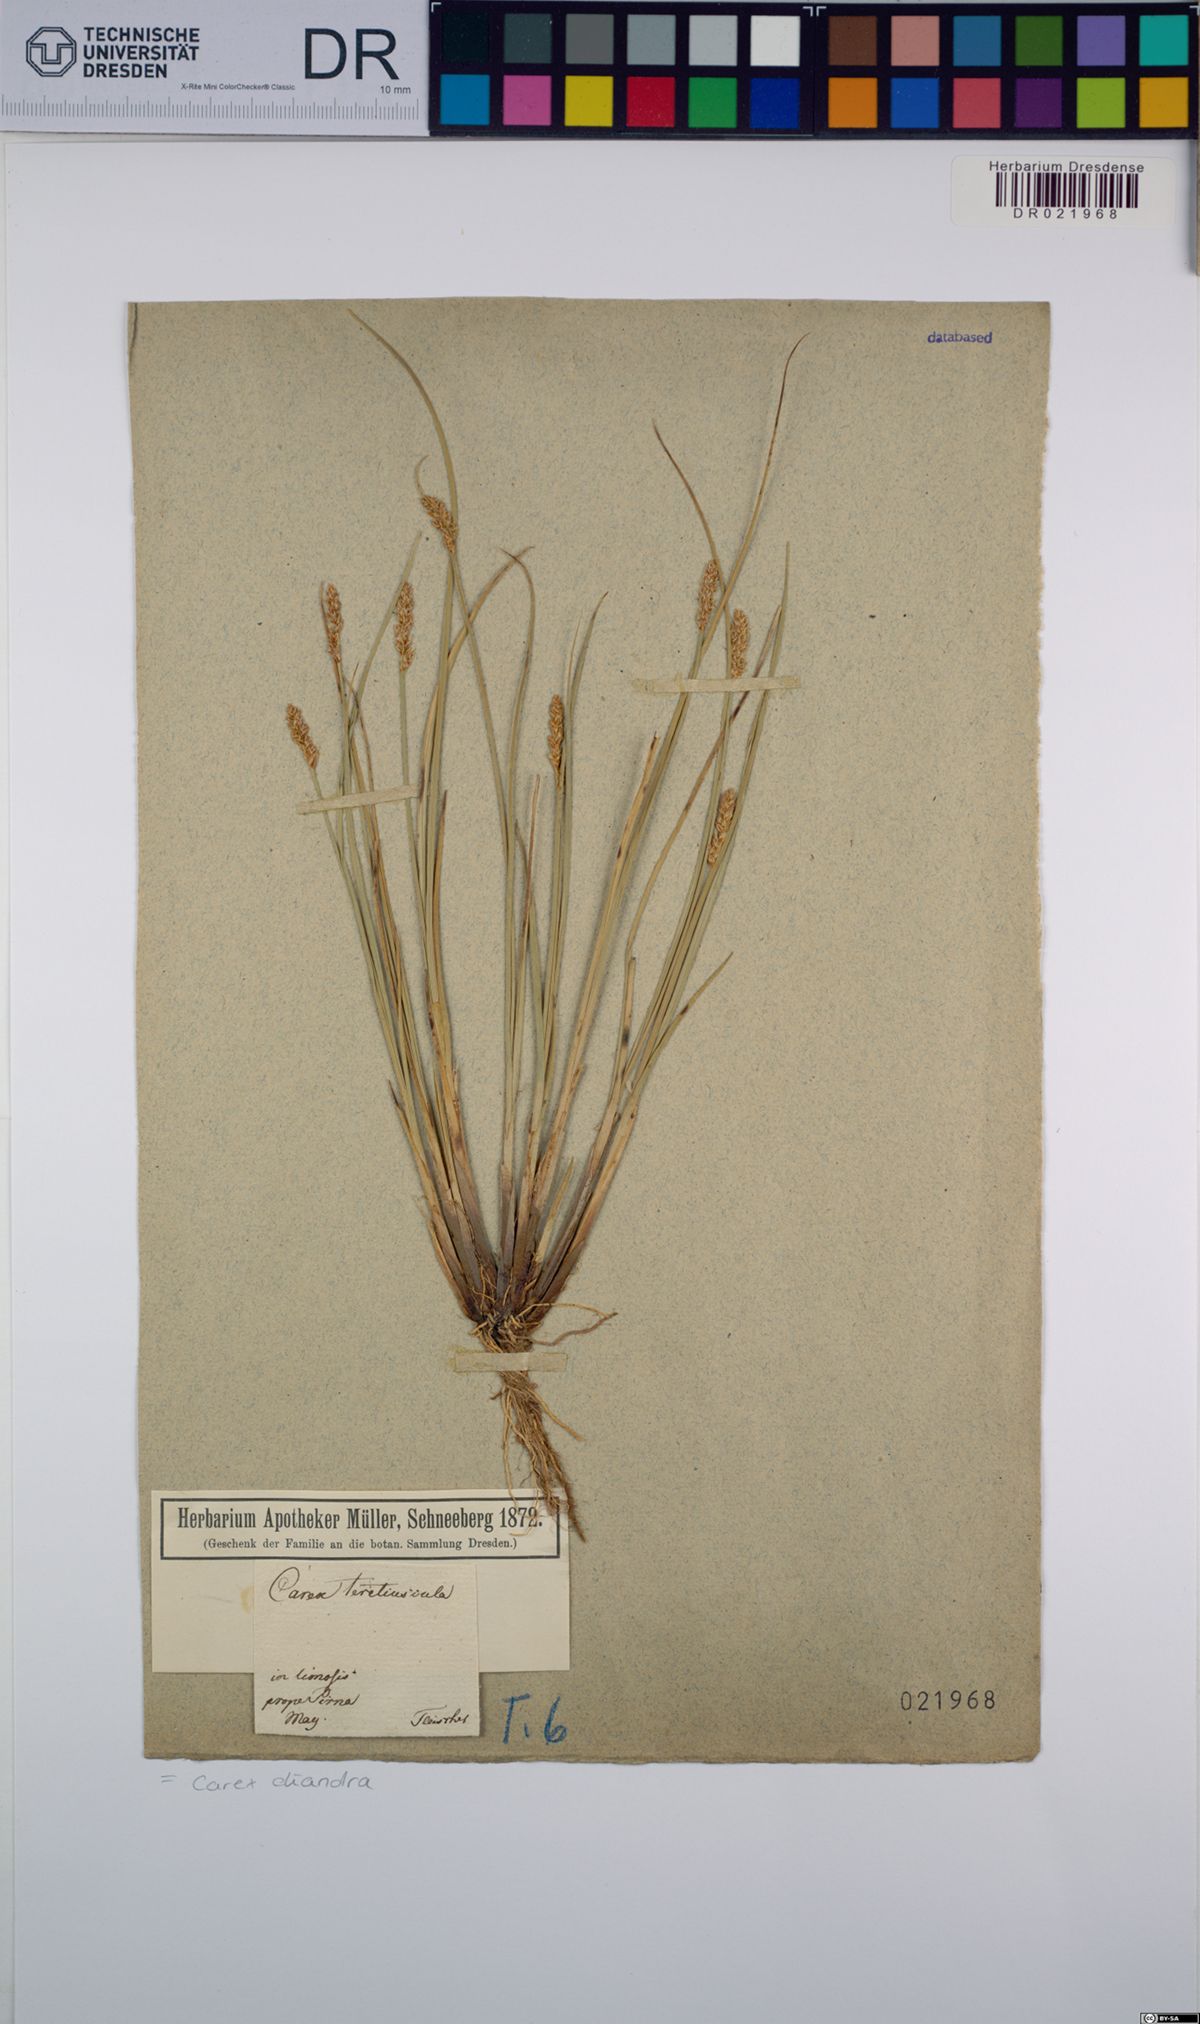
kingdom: Plantae
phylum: Tracheophyta
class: Liliopsida
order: Poales
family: Cyperaceae
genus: Carex
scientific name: Carex diandra
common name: Lesser tussock-sedge
